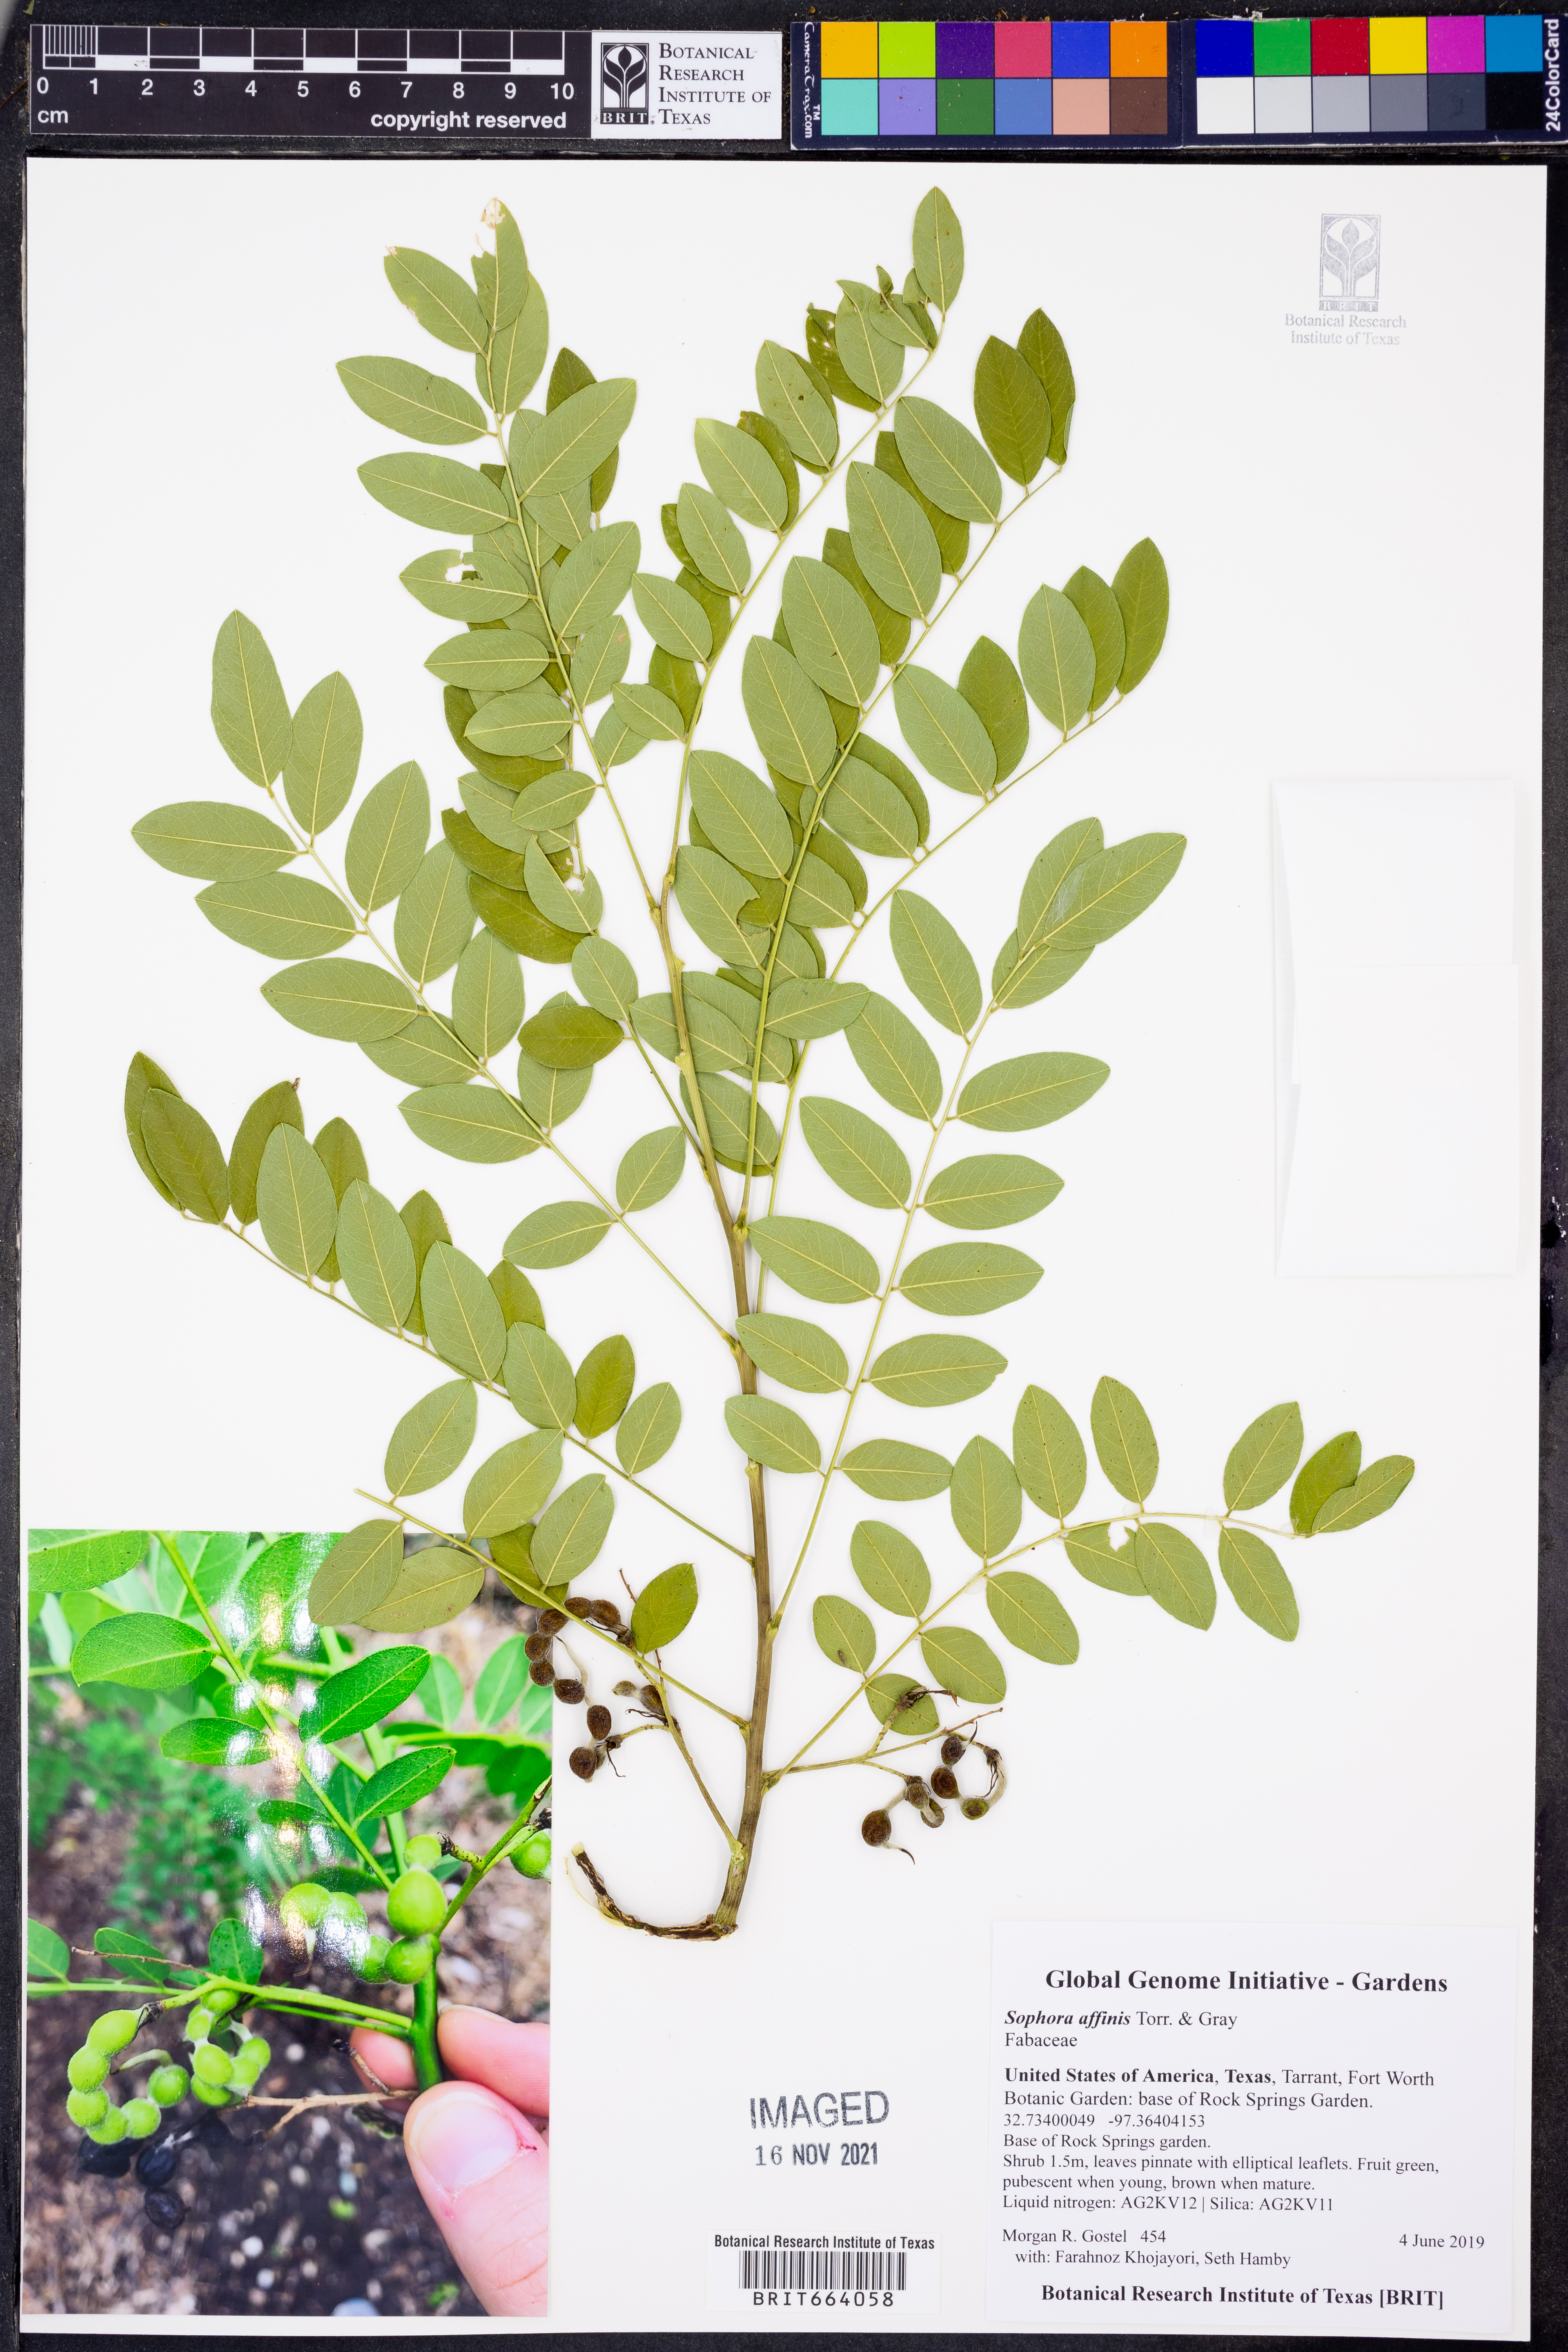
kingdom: Plantae
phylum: Tracheophyta
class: Magnoliopsida
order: Fabales
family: Fabaceae
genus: Styphnolobium
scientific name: Styphnolobium affine
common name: Texas sophora
